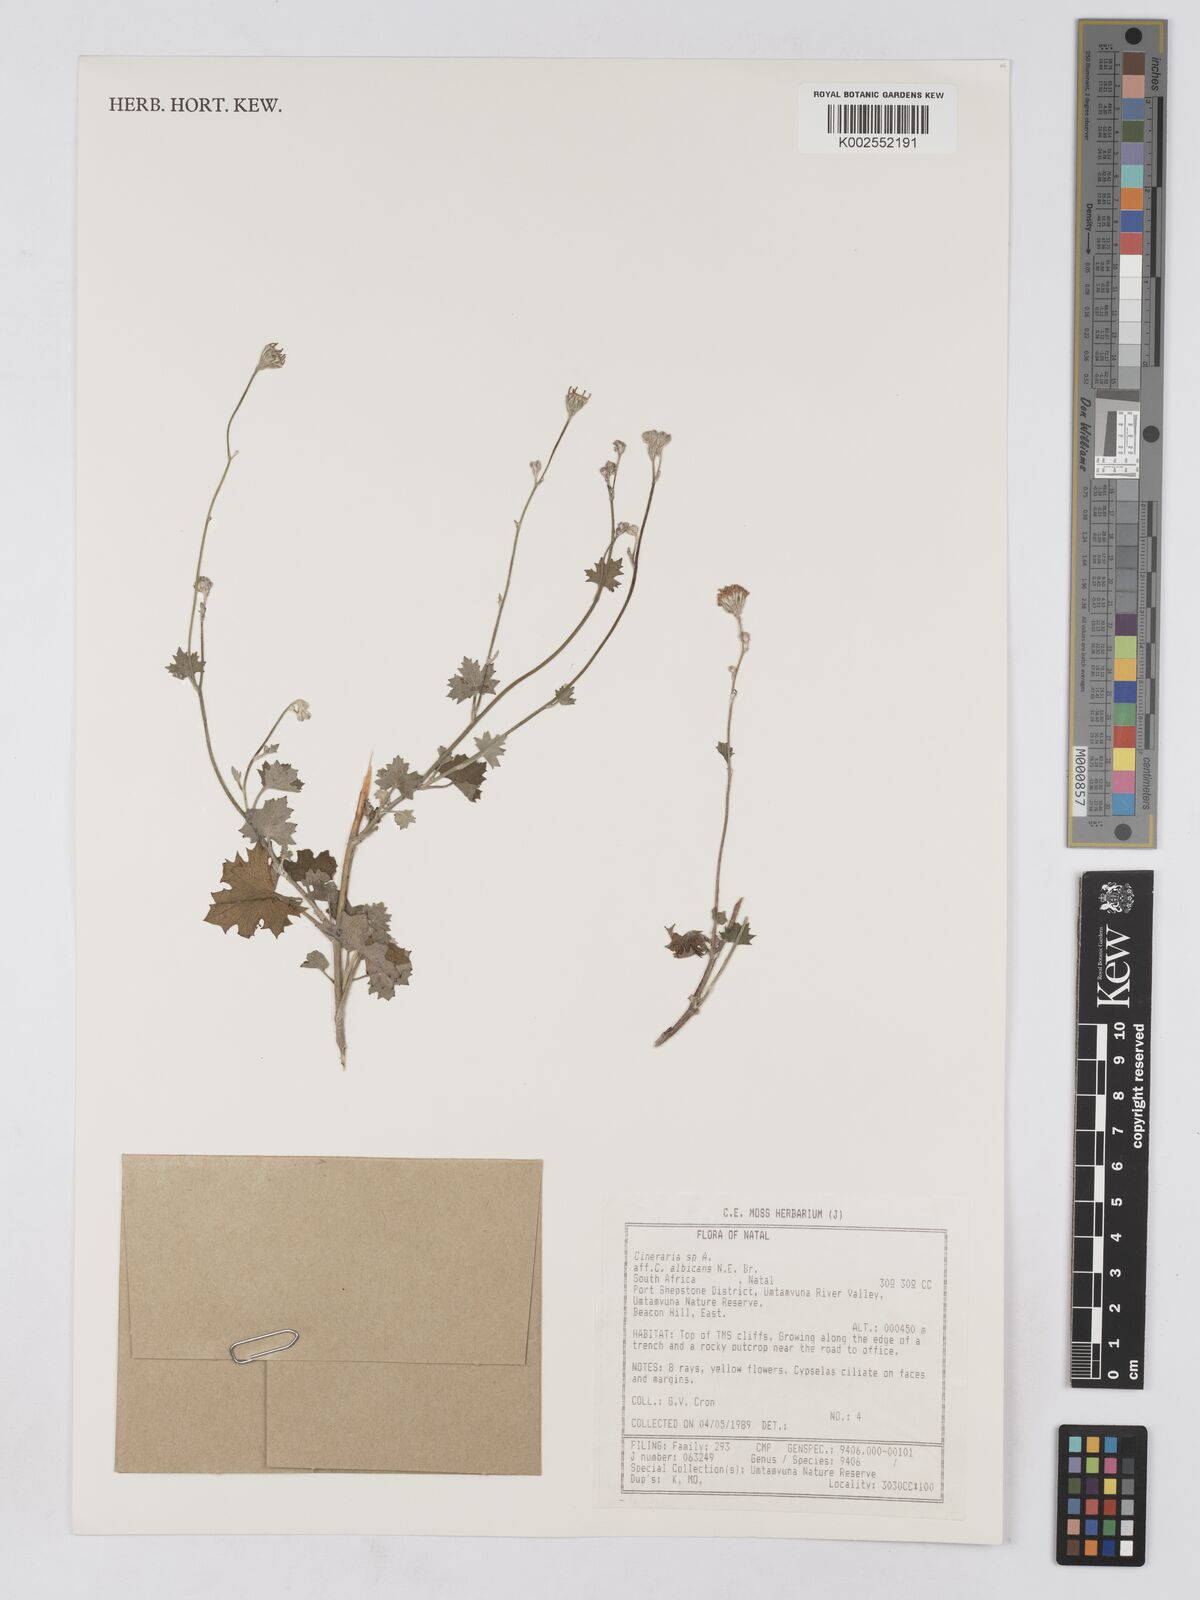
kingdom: Plantae
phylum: Tracheophyta
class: Magnoliopsida
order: Asterales
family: Asteraceae
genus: Cineraria
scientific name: Cineraria albicans
